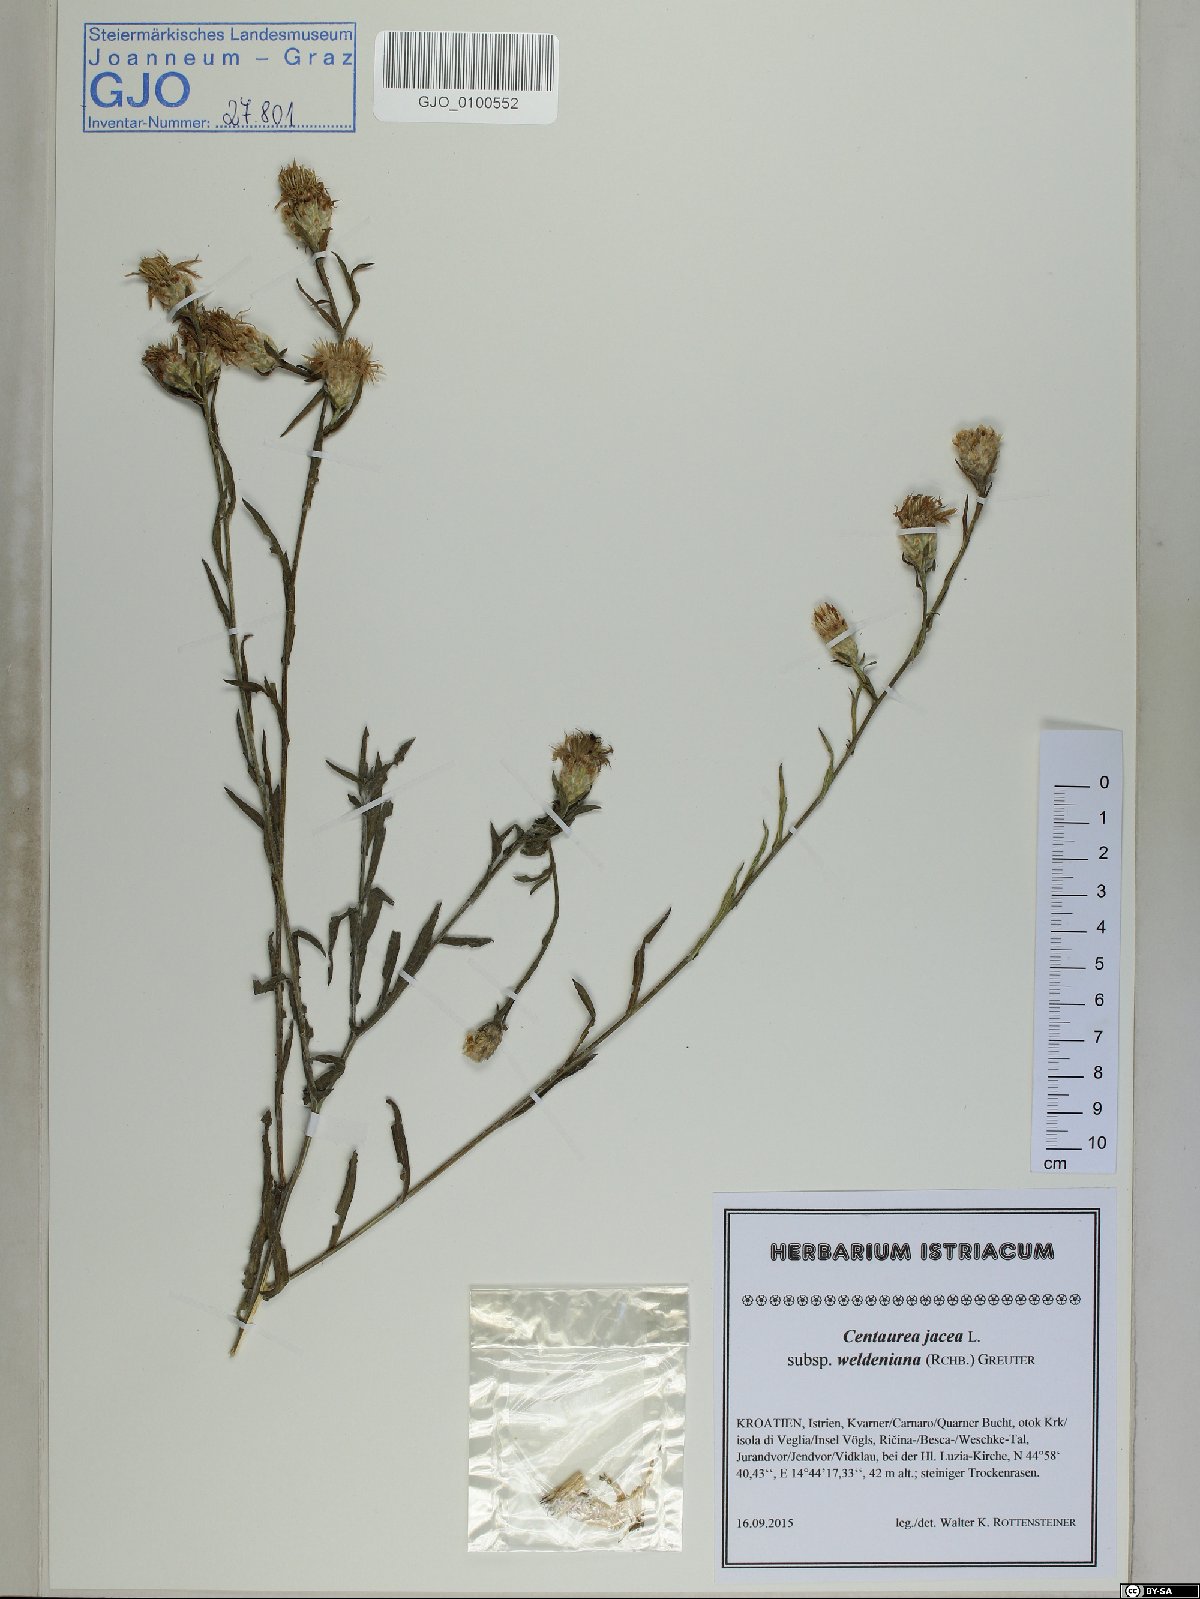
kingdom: Plantae
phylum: Tracheophyta
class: Magnoliopsida
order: Asterales
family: Asteraceae
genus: Centaurea
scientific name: Centaurea jacea
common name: Brown knapweed
